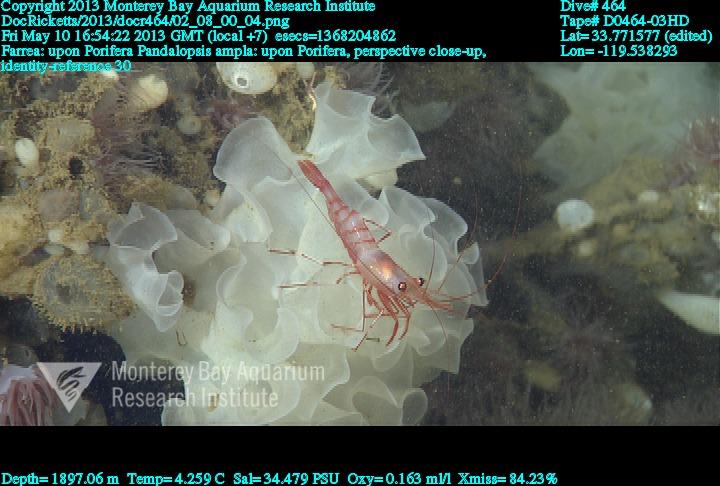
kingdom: Animalia
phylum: Porifera
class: Hexactinellida
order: Sceptrulophora
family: Farreidae
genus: Farrea
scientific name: Farrea
